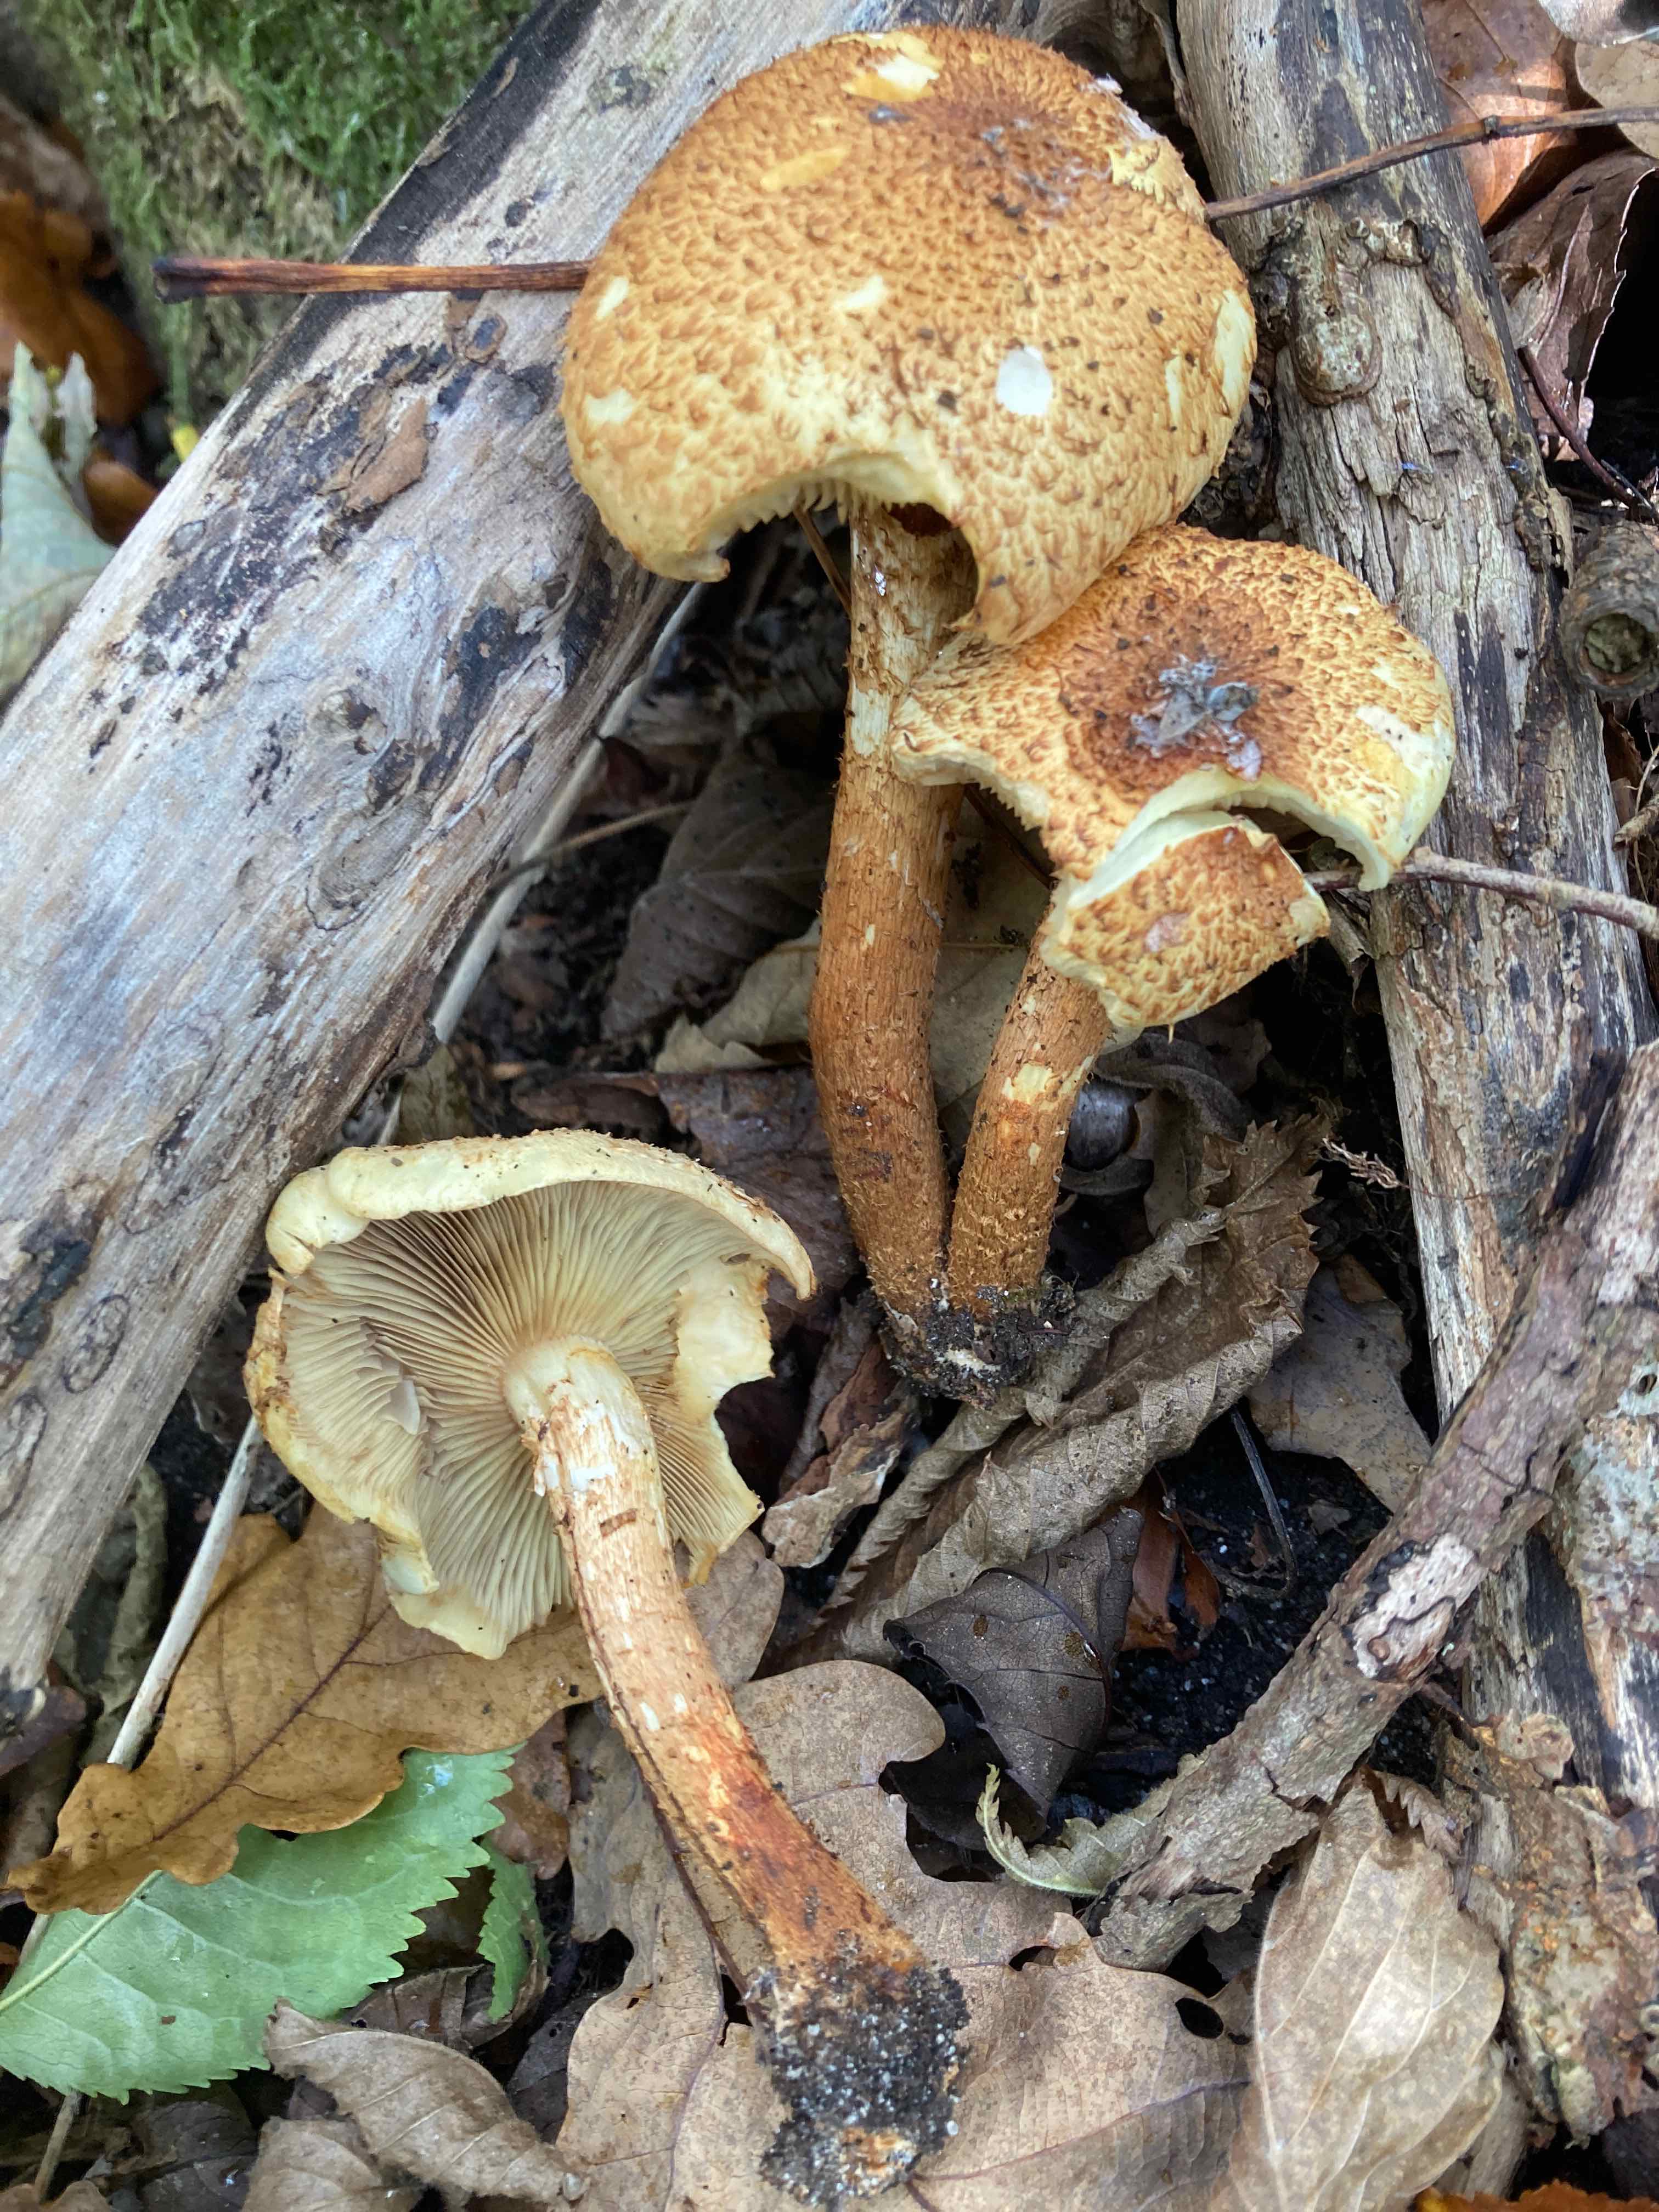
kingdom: Fungi
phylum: Basidiomycota
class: Agaricomycetes
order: Agaricales
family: Strophariaceae
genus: Pholiota
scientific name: Pholiota squarrosa
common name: krumskællet skælhat
